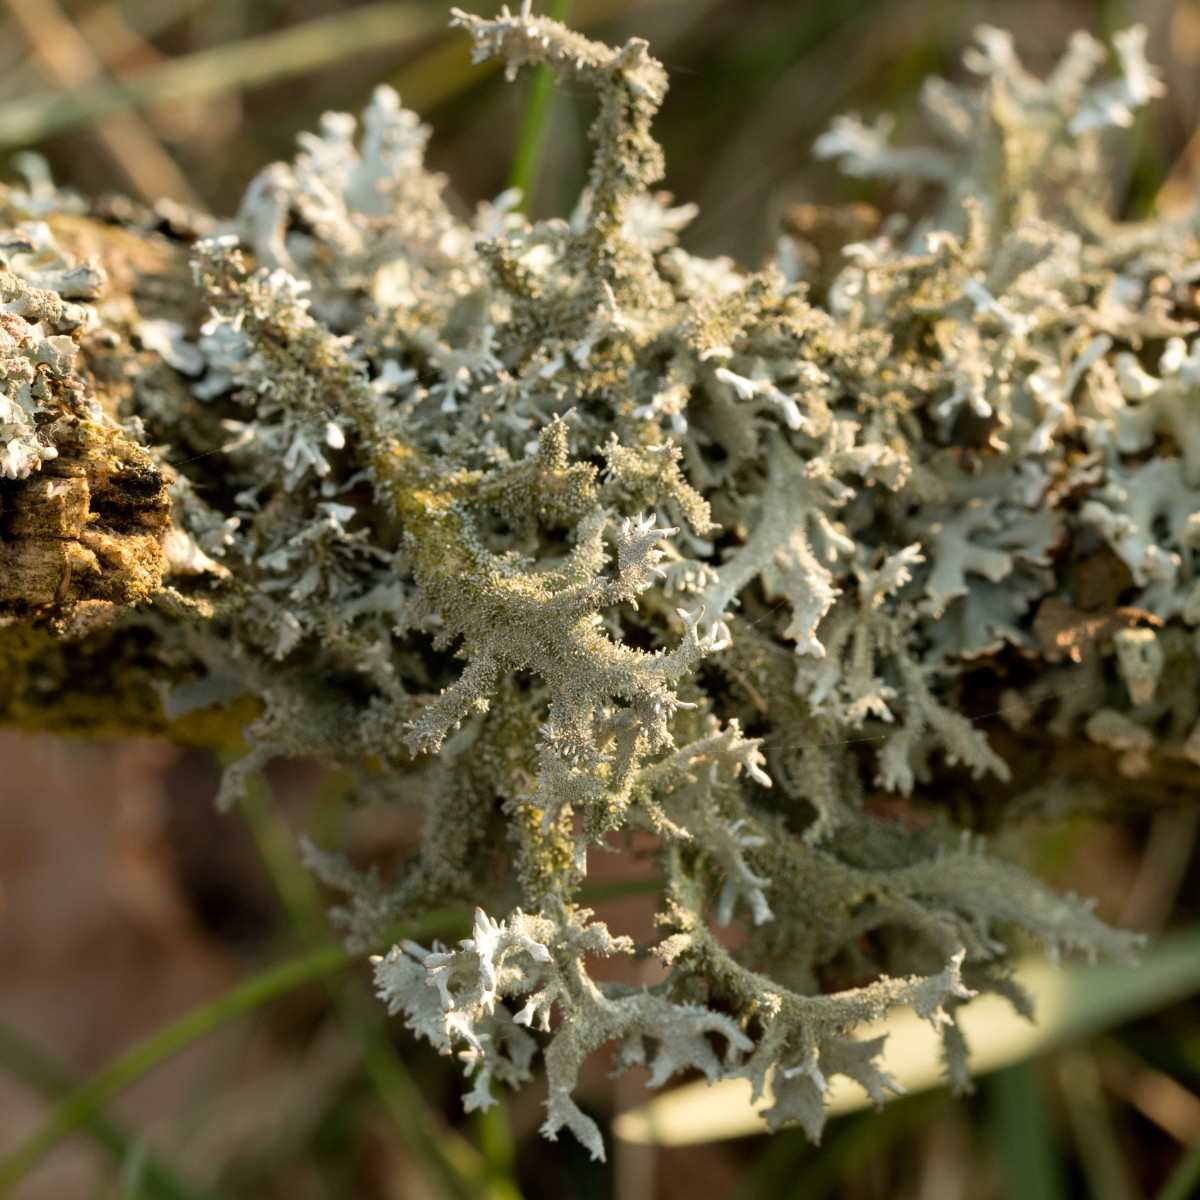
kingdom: Fungi
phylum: Ascomycota
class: Lecanoromycetes
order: Lecanorales
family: Parmeliaceae
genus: Pseudevernia
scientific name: Pseudevernia furfuracea
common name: grå fyrrelav
